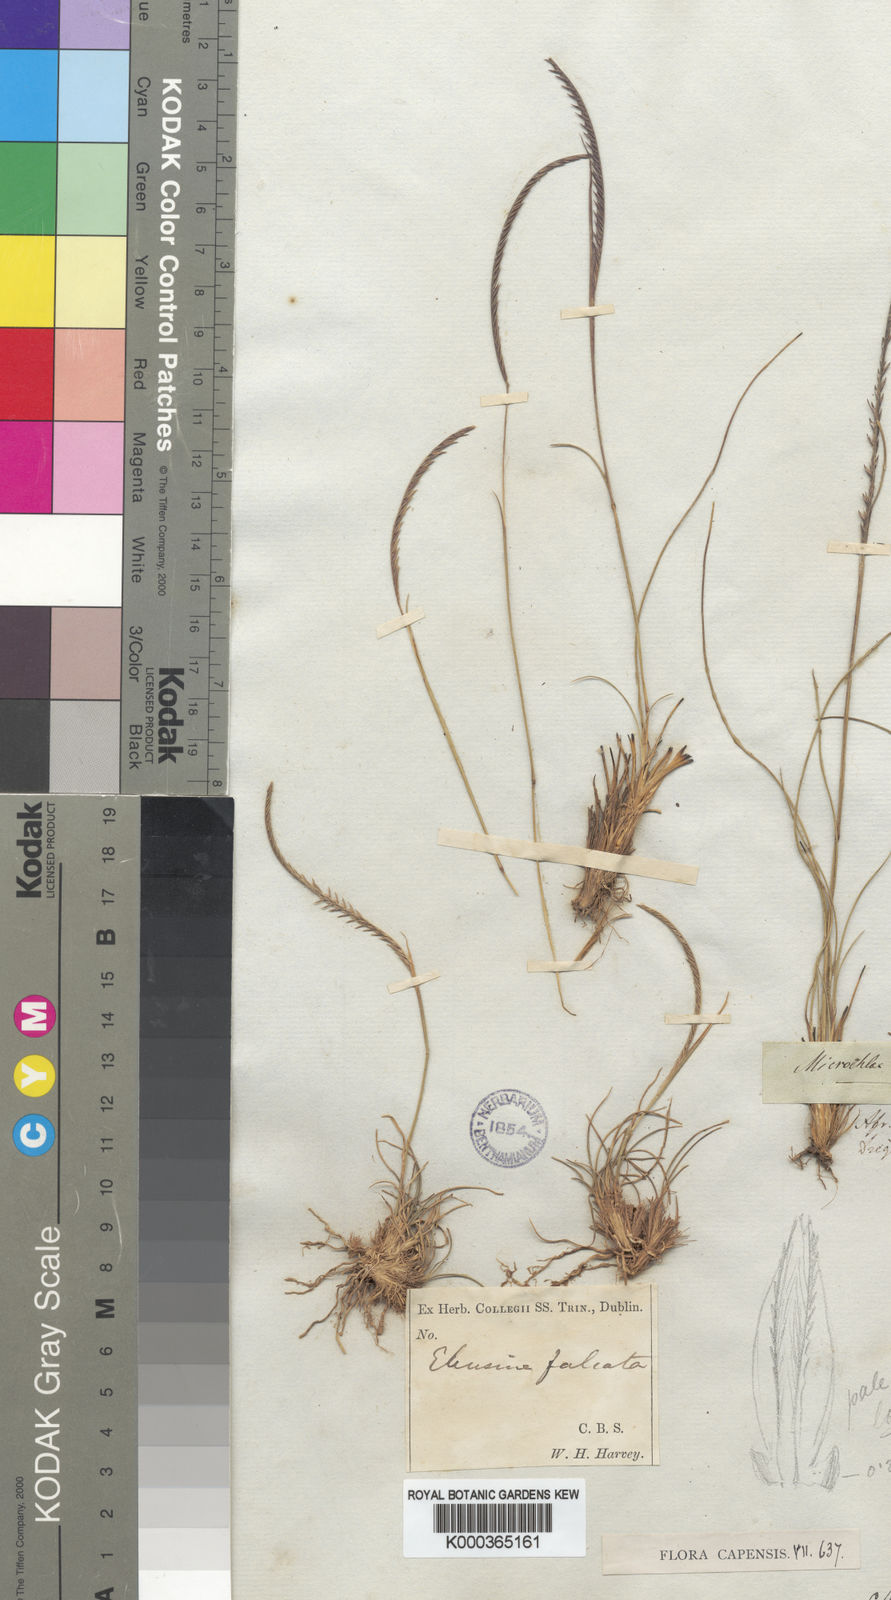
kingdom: Plantae
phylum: Tracheophyta
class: Liliopsida
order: Poales
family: Poaceae
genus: Microchloa
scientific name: Microchloa caffra
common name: Pincushion grass
